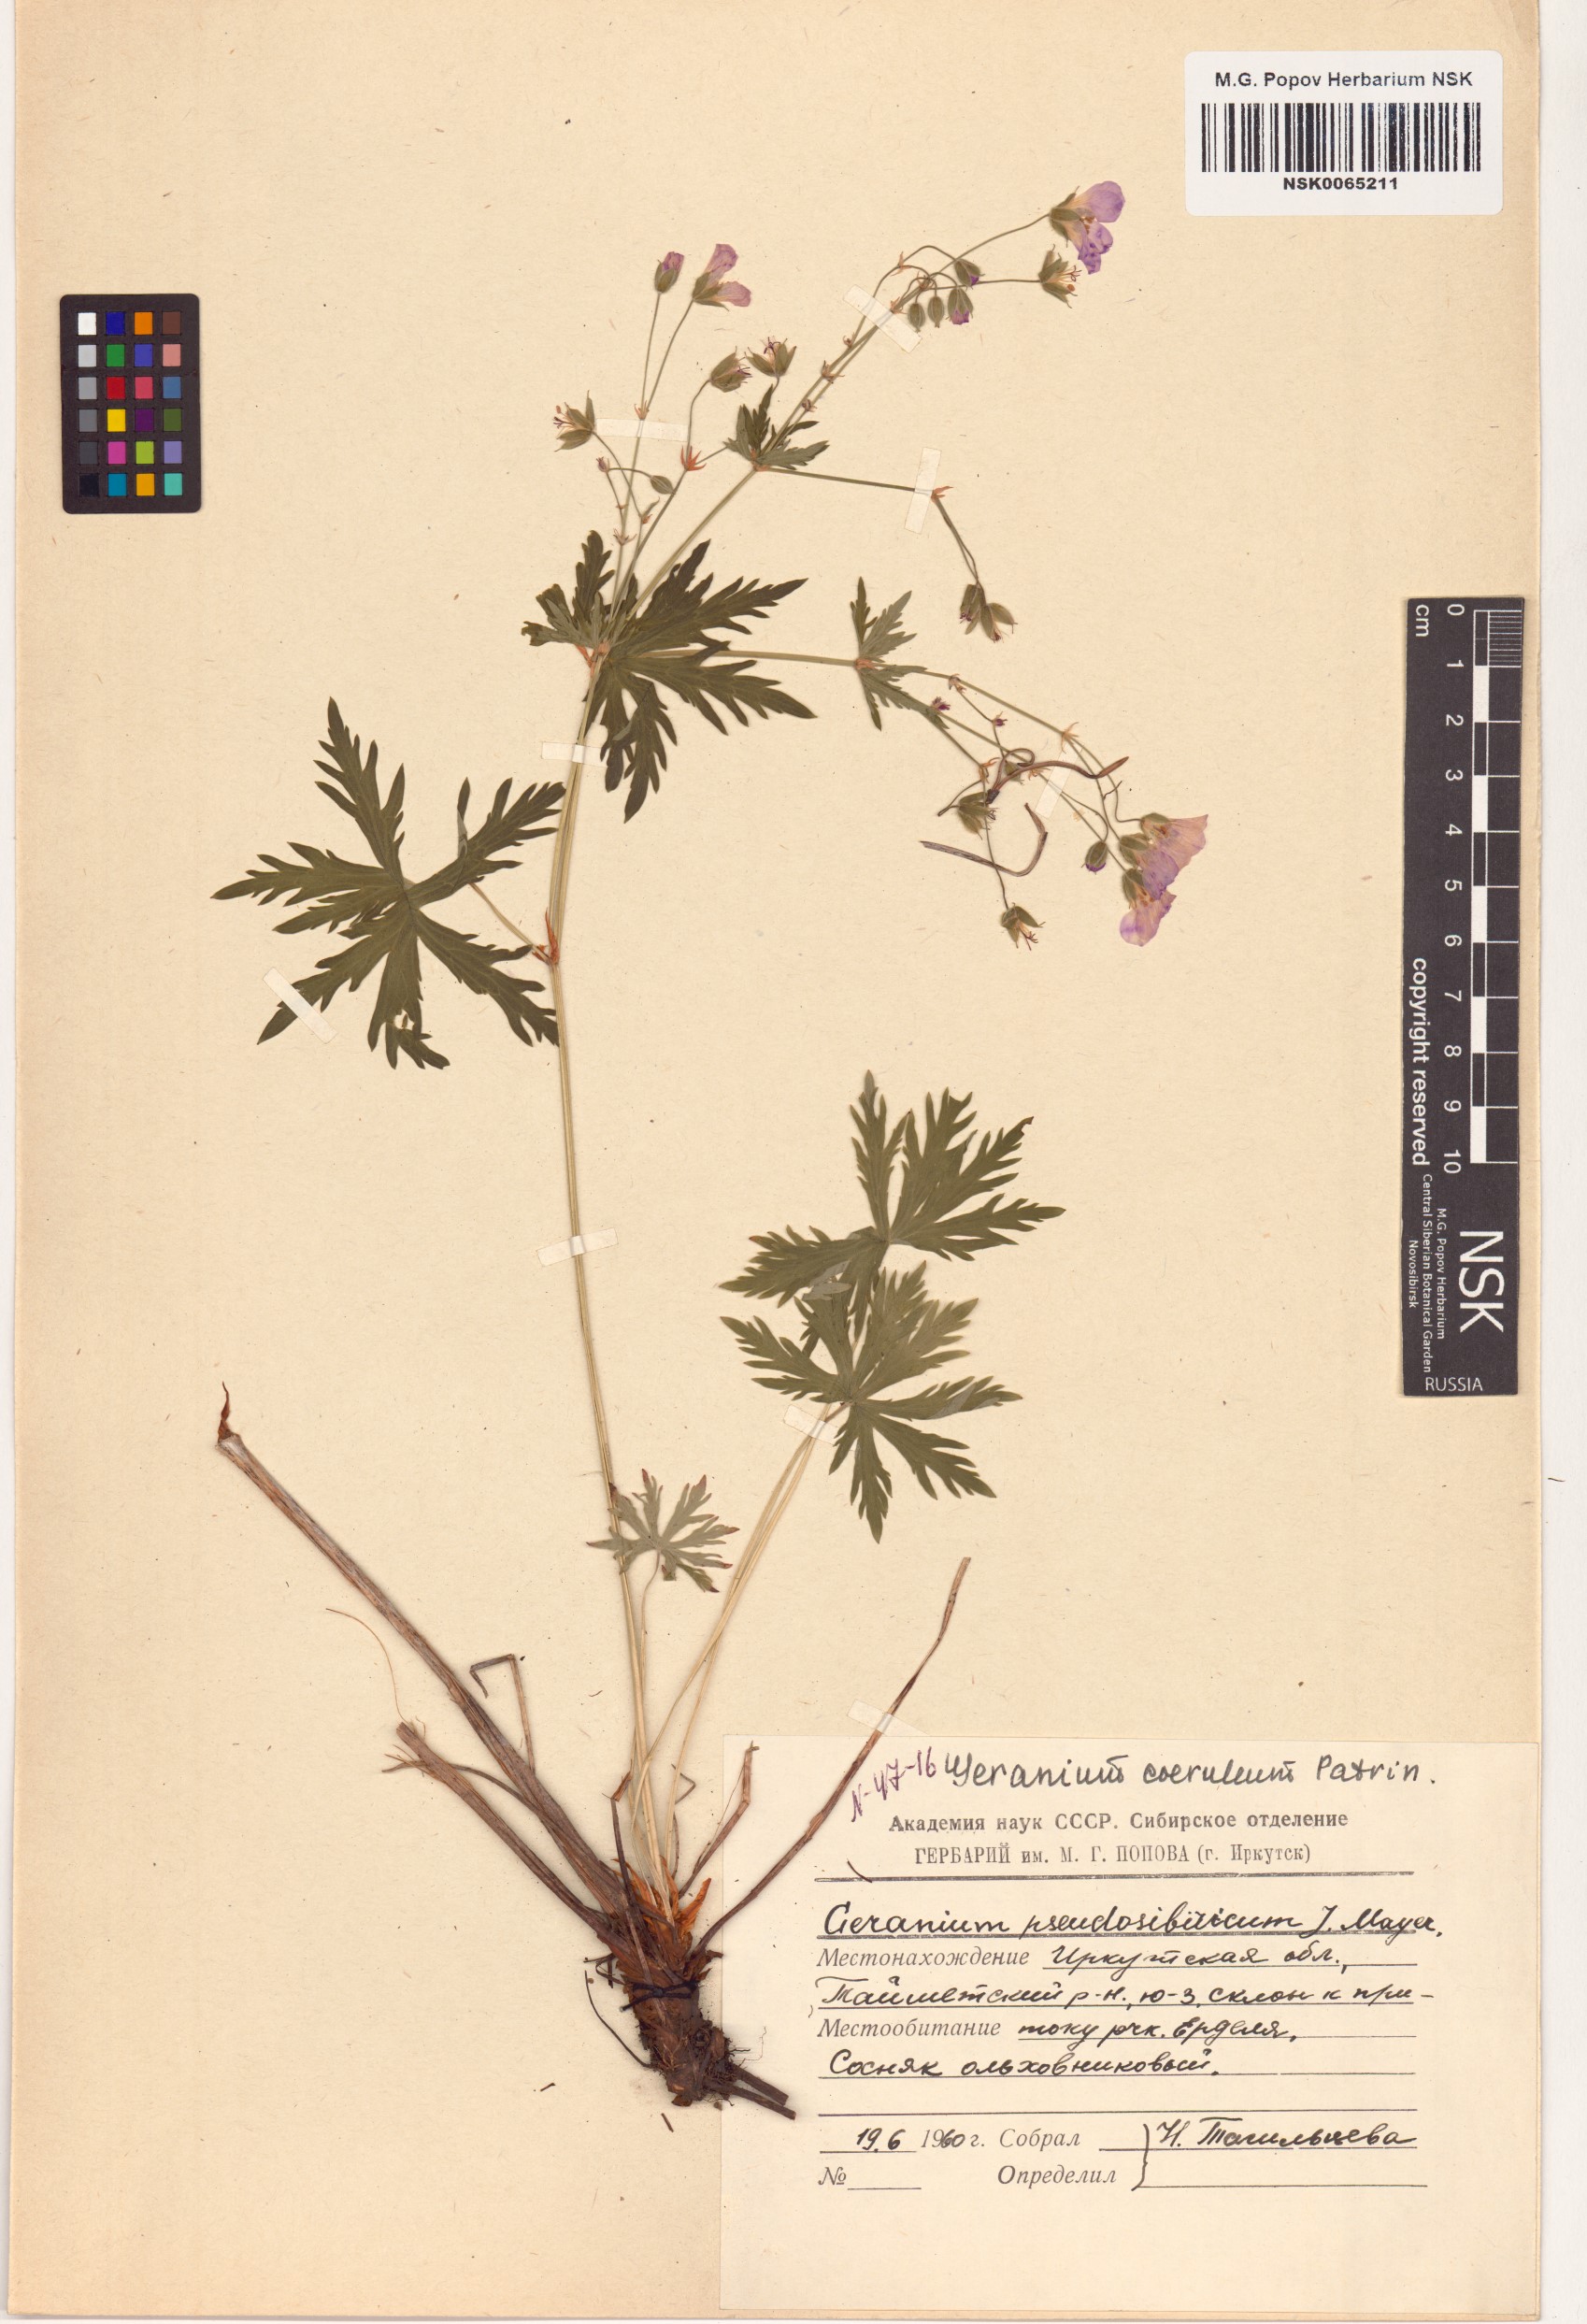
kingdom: Plantae
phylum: Tracheophyta
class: Magnoliopsida
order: Geraniales
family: Geraniaceae
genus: Geranium
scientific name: Geranium pseudosibiricum
